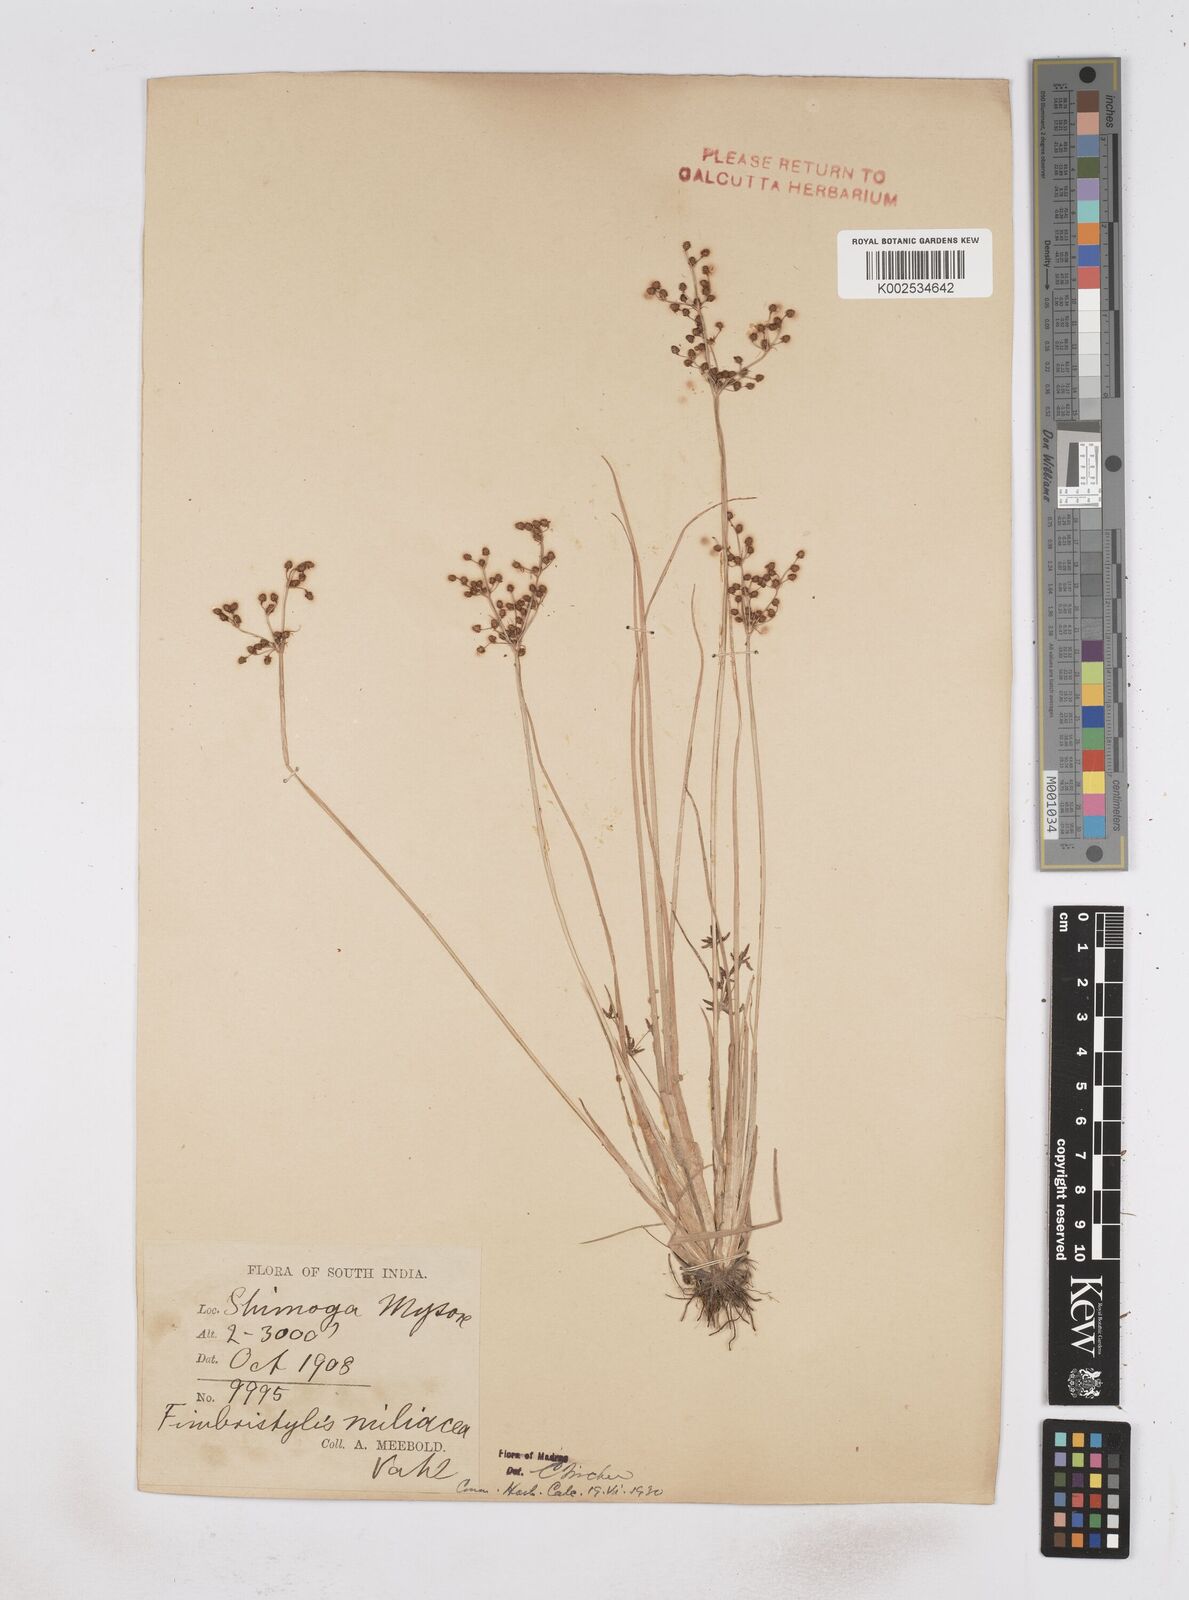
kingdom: Plantae
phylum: Tracheophyta
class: Liliopsida
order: Poales
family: Cyperaceae
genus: Fimbristylis
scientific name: Fimbristylis littoralis
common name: Fimbry
